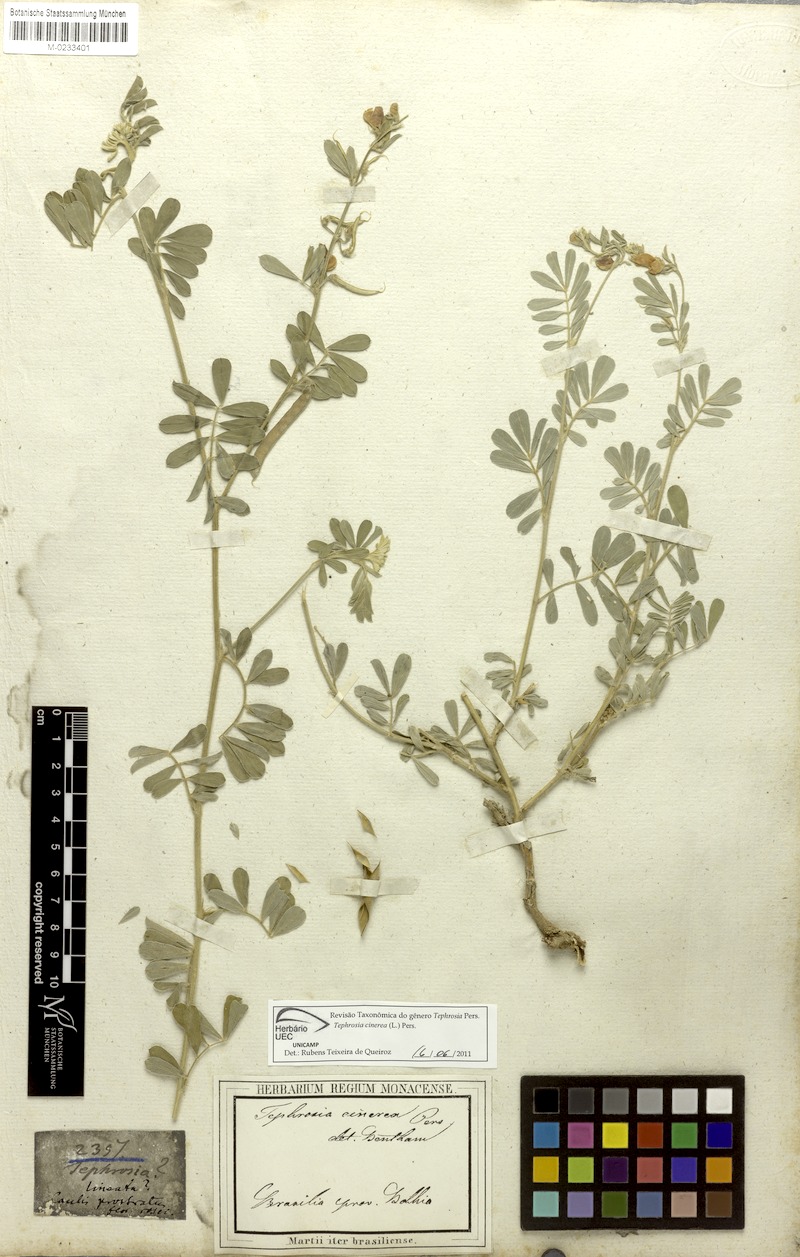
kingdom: Plantae
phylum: Tracheophyta
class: Magnoliopsida
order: Fabales
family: Fabaceae
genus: Tephrosia
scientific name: Tephrosia cinerea
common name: Ashen hoarypea
